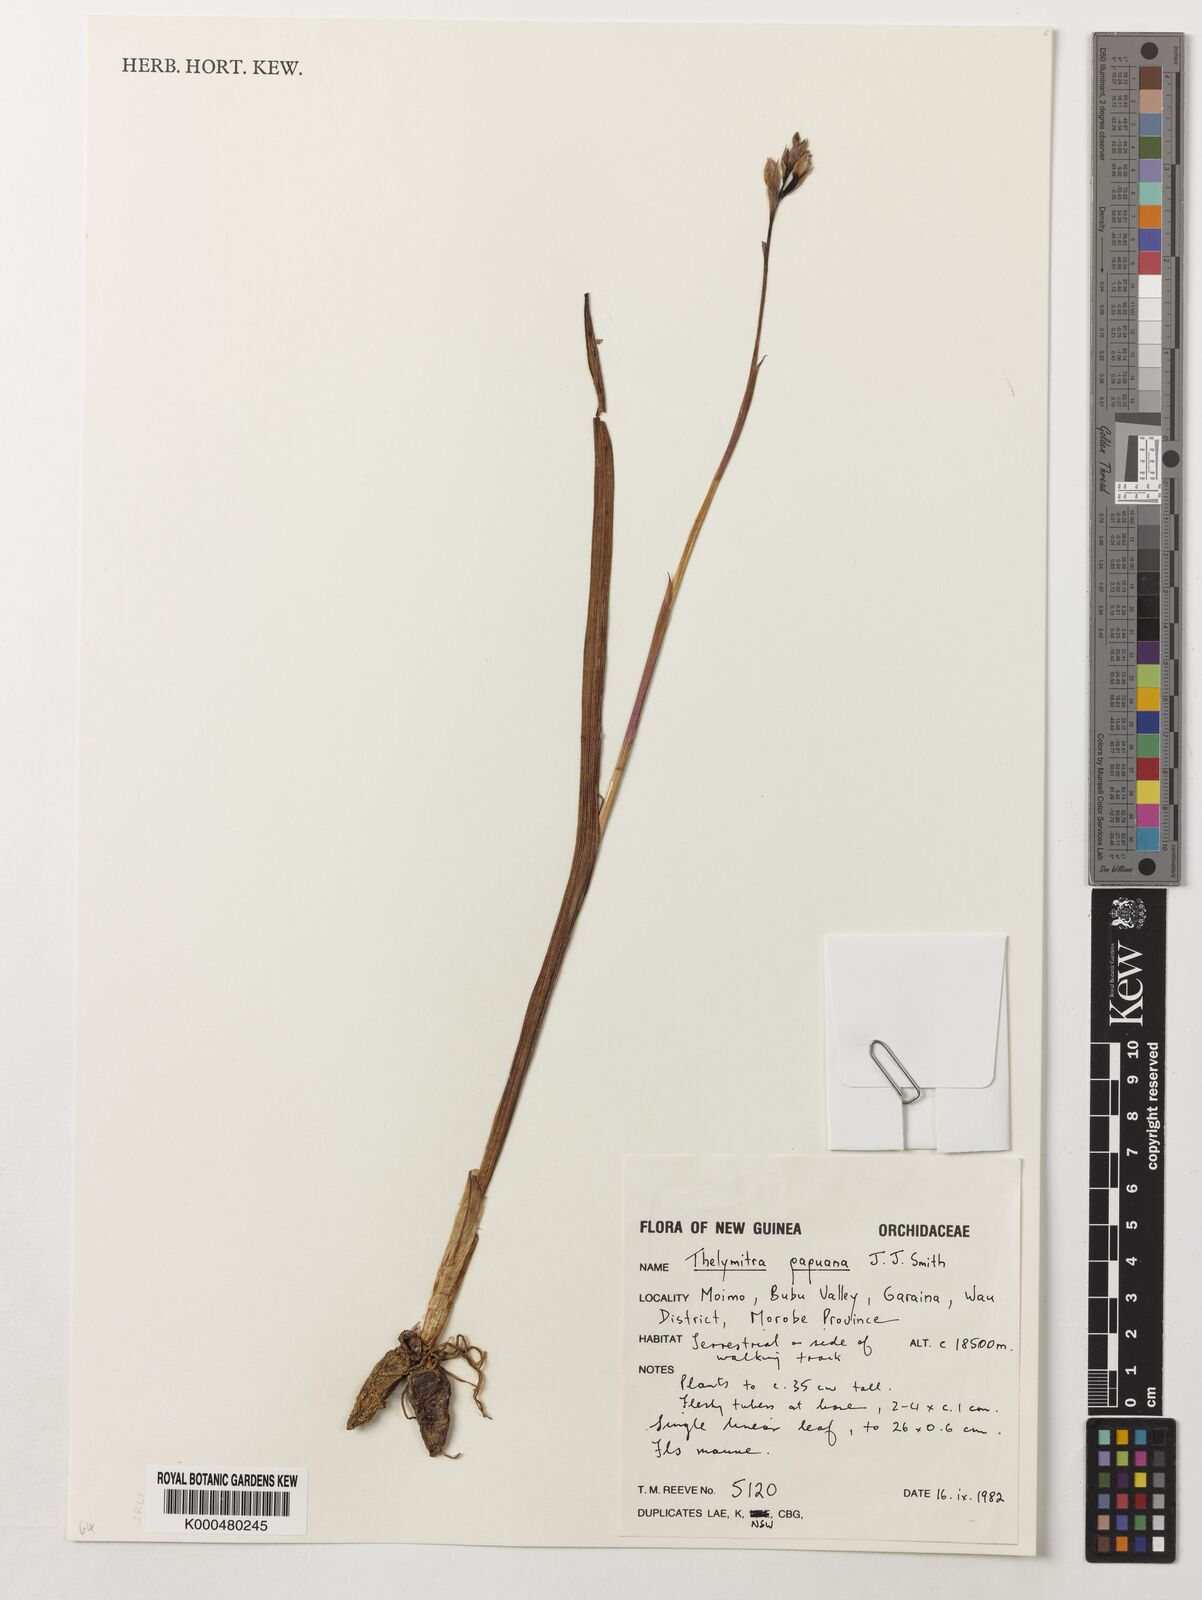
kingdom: Plantae
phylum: Tracheophyta
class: Liliopsida
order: Asparagales
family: Orchidaceae
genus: Thelymitra
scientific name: Thelymitra papuana
